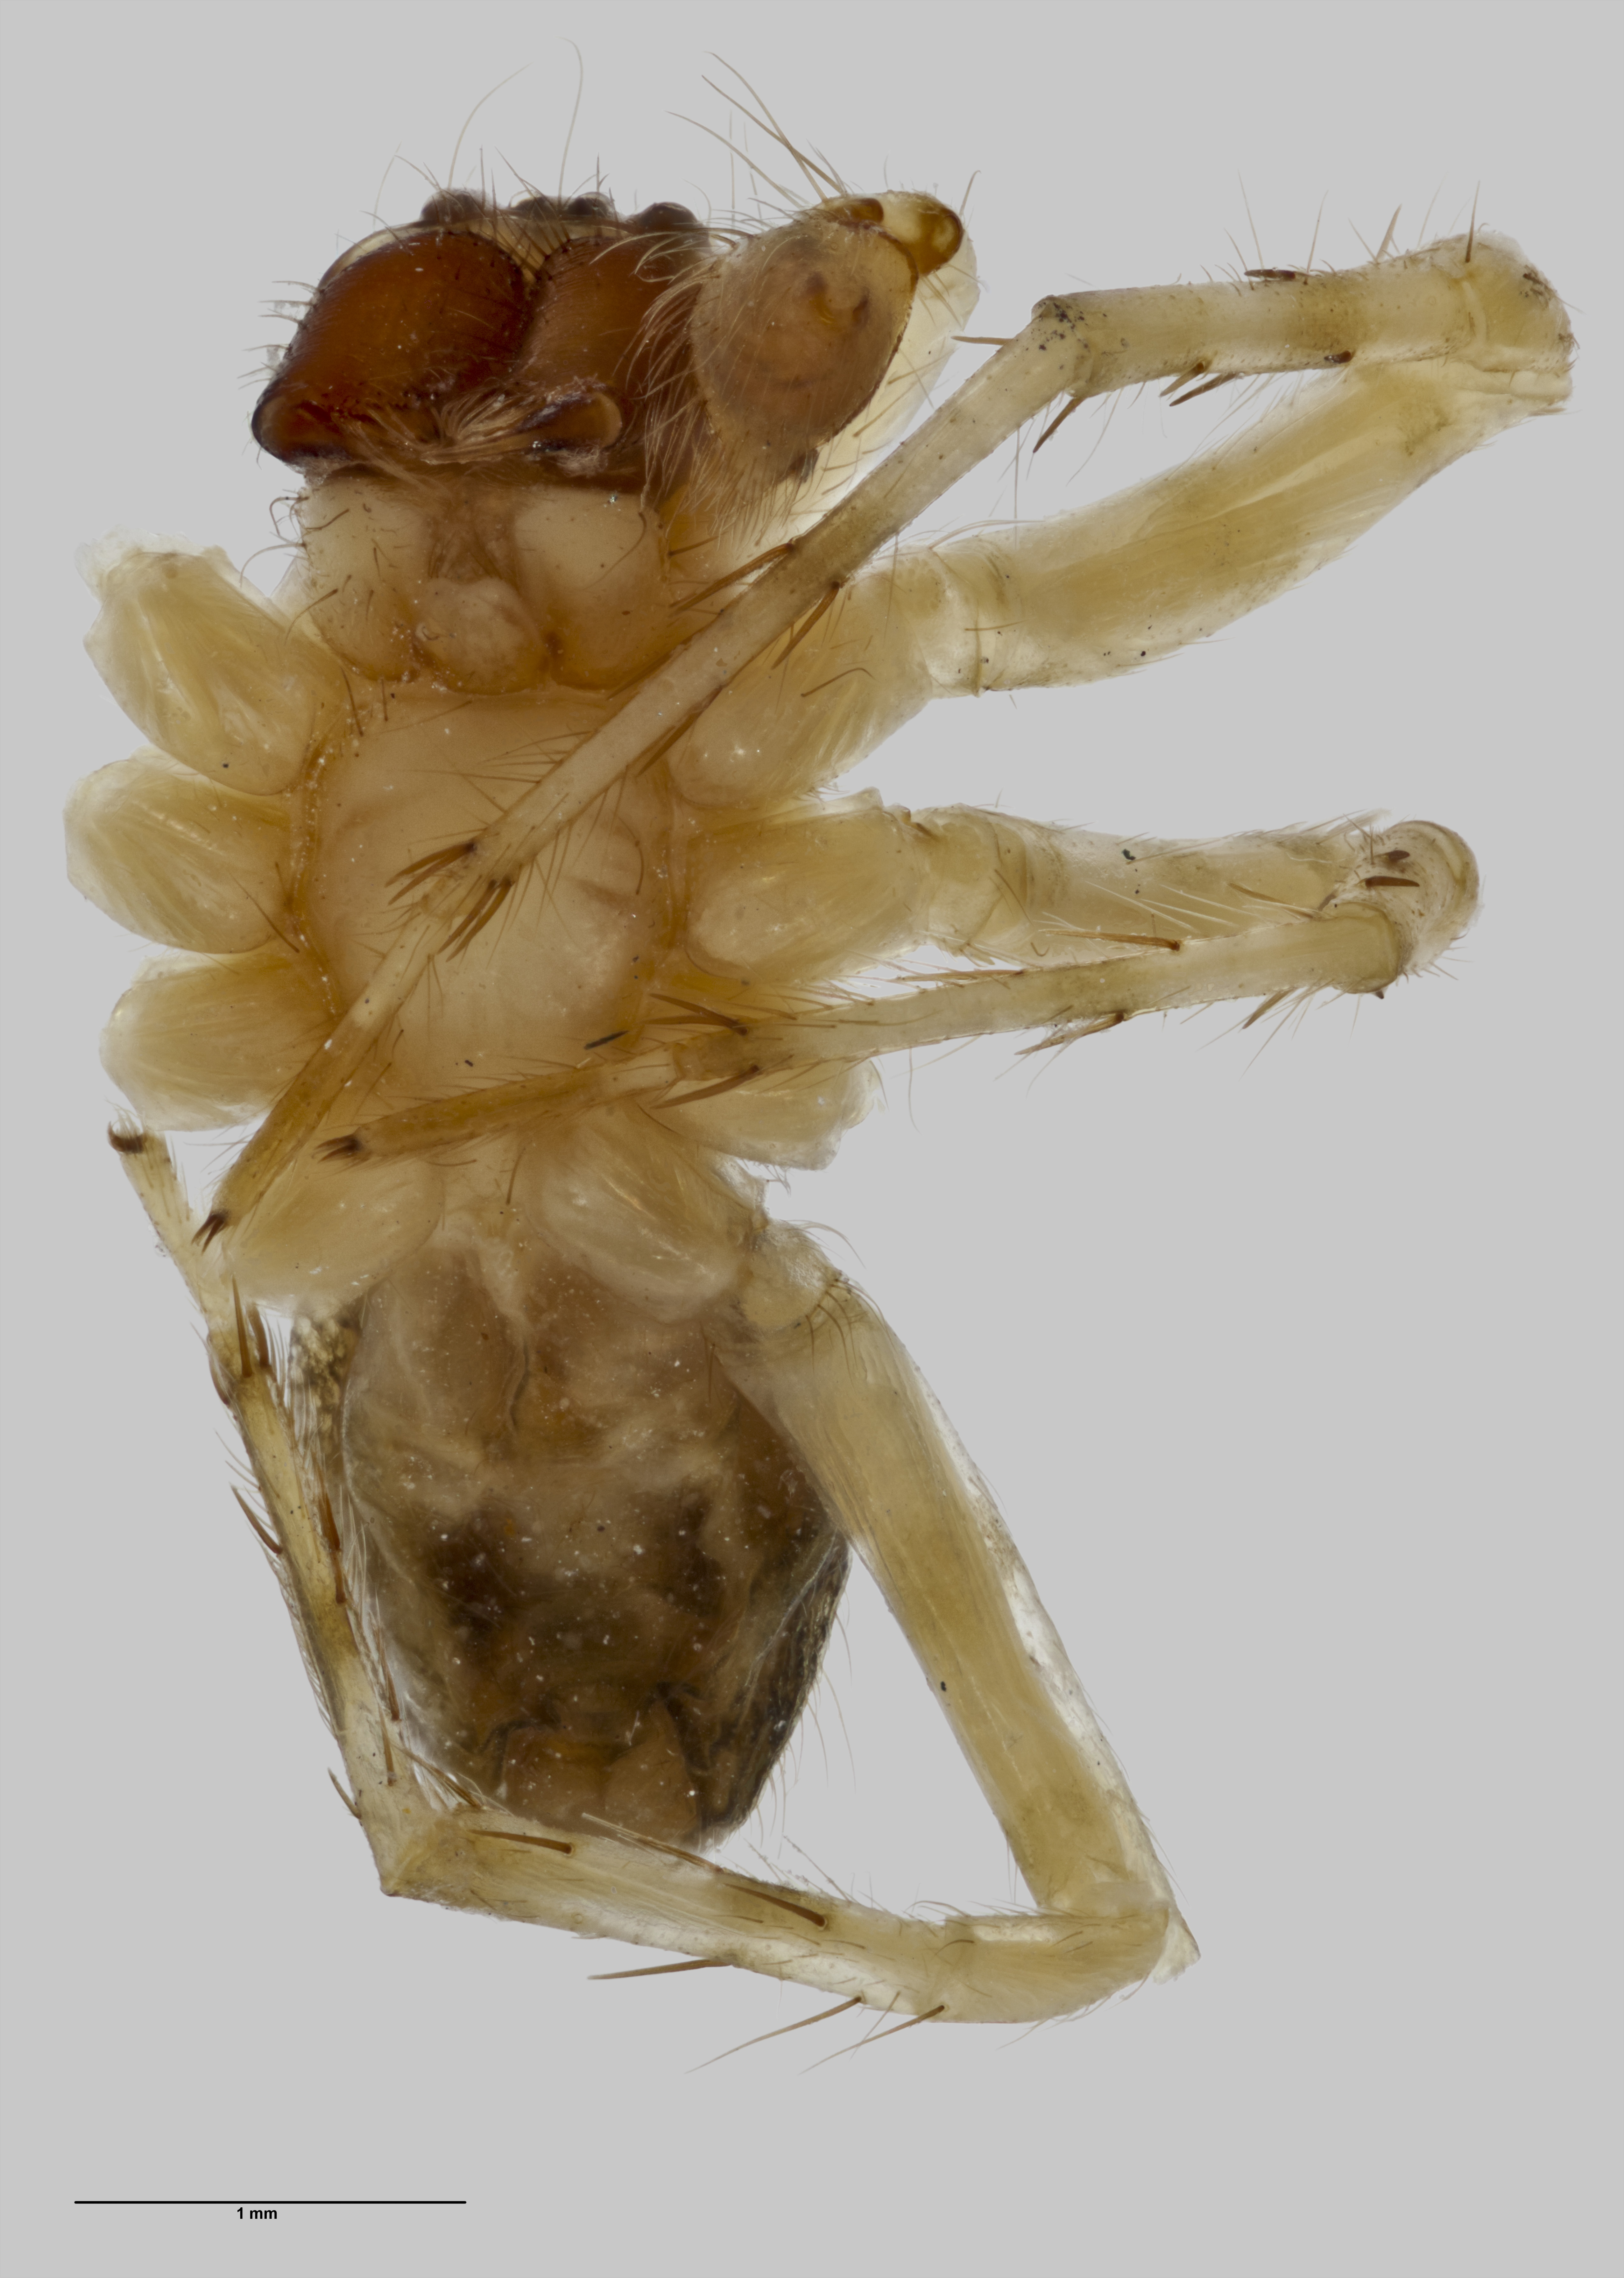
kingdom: Animalia
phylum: Arthropoda
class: Arachnida
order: Araneae
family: Agelenidae
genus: Oramiella
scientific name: Oramiella wisei
